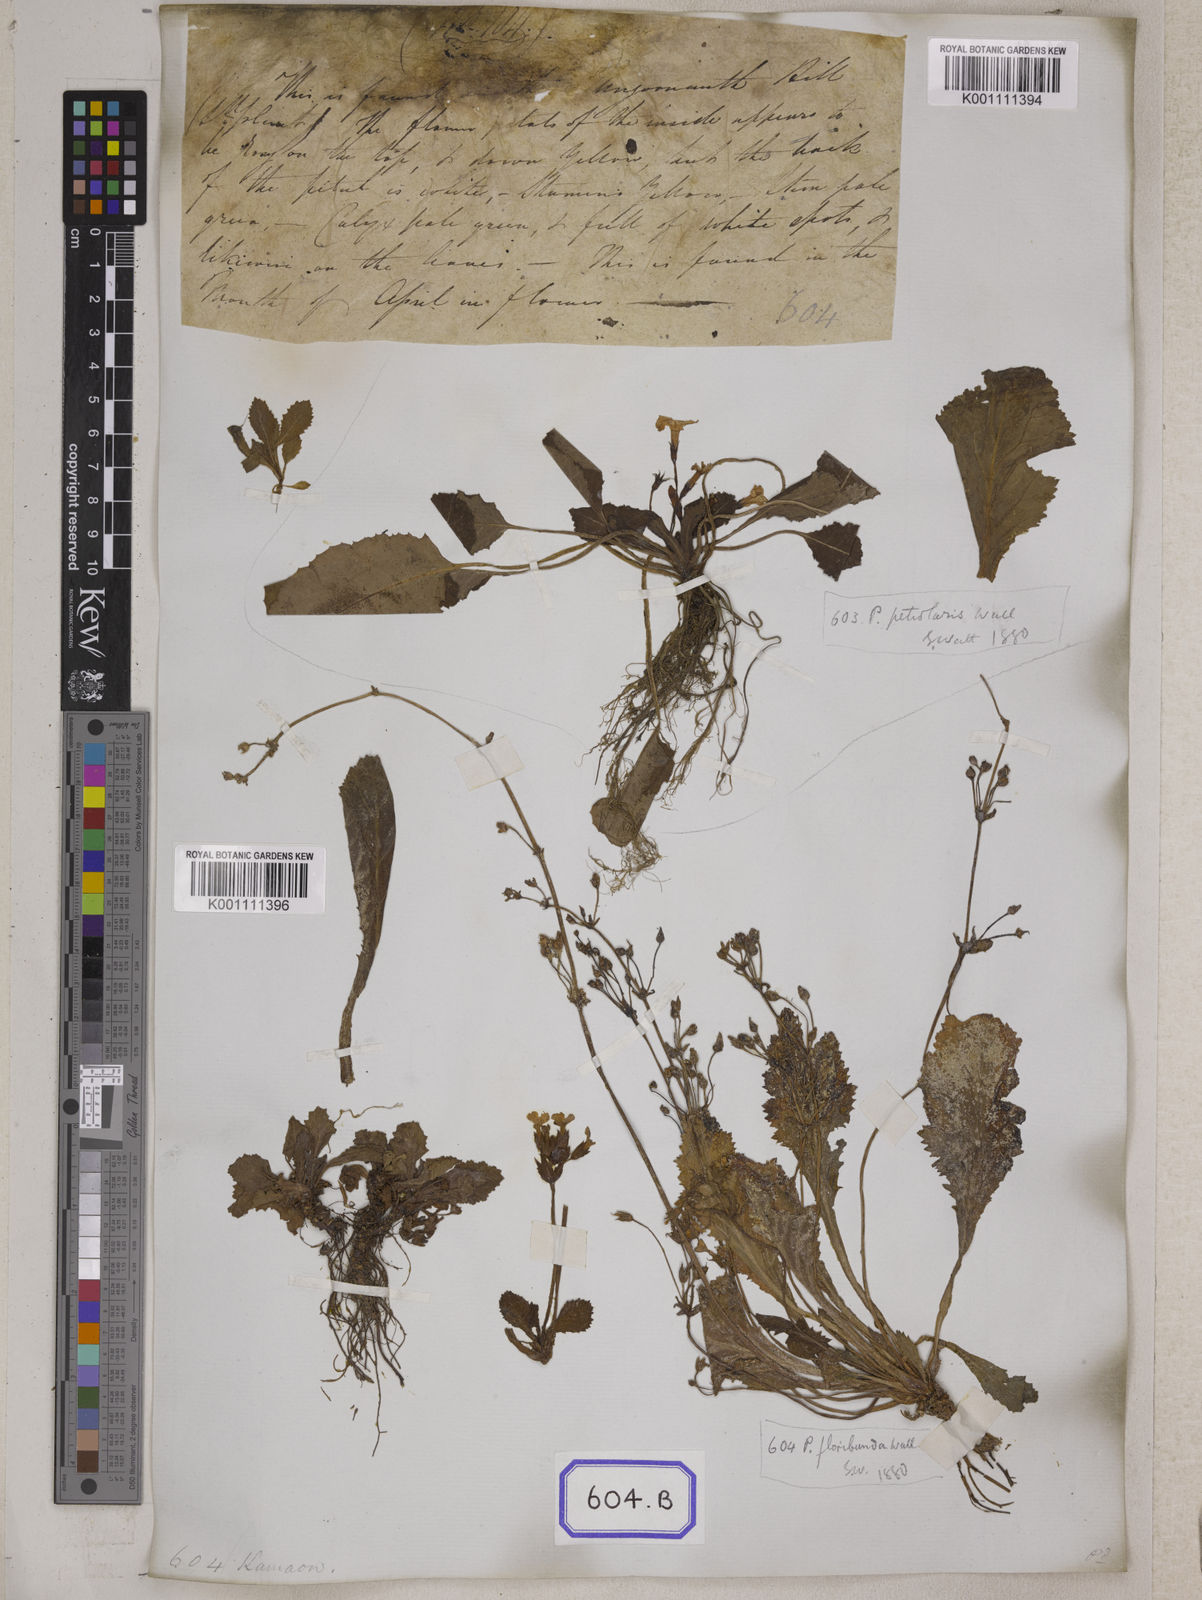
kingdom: Plantae
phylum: Tracheophyta
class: Magnoliopsida
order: Ericales
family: Primulaceae
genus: Evotrochis
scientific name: Evotrochis floribunda
